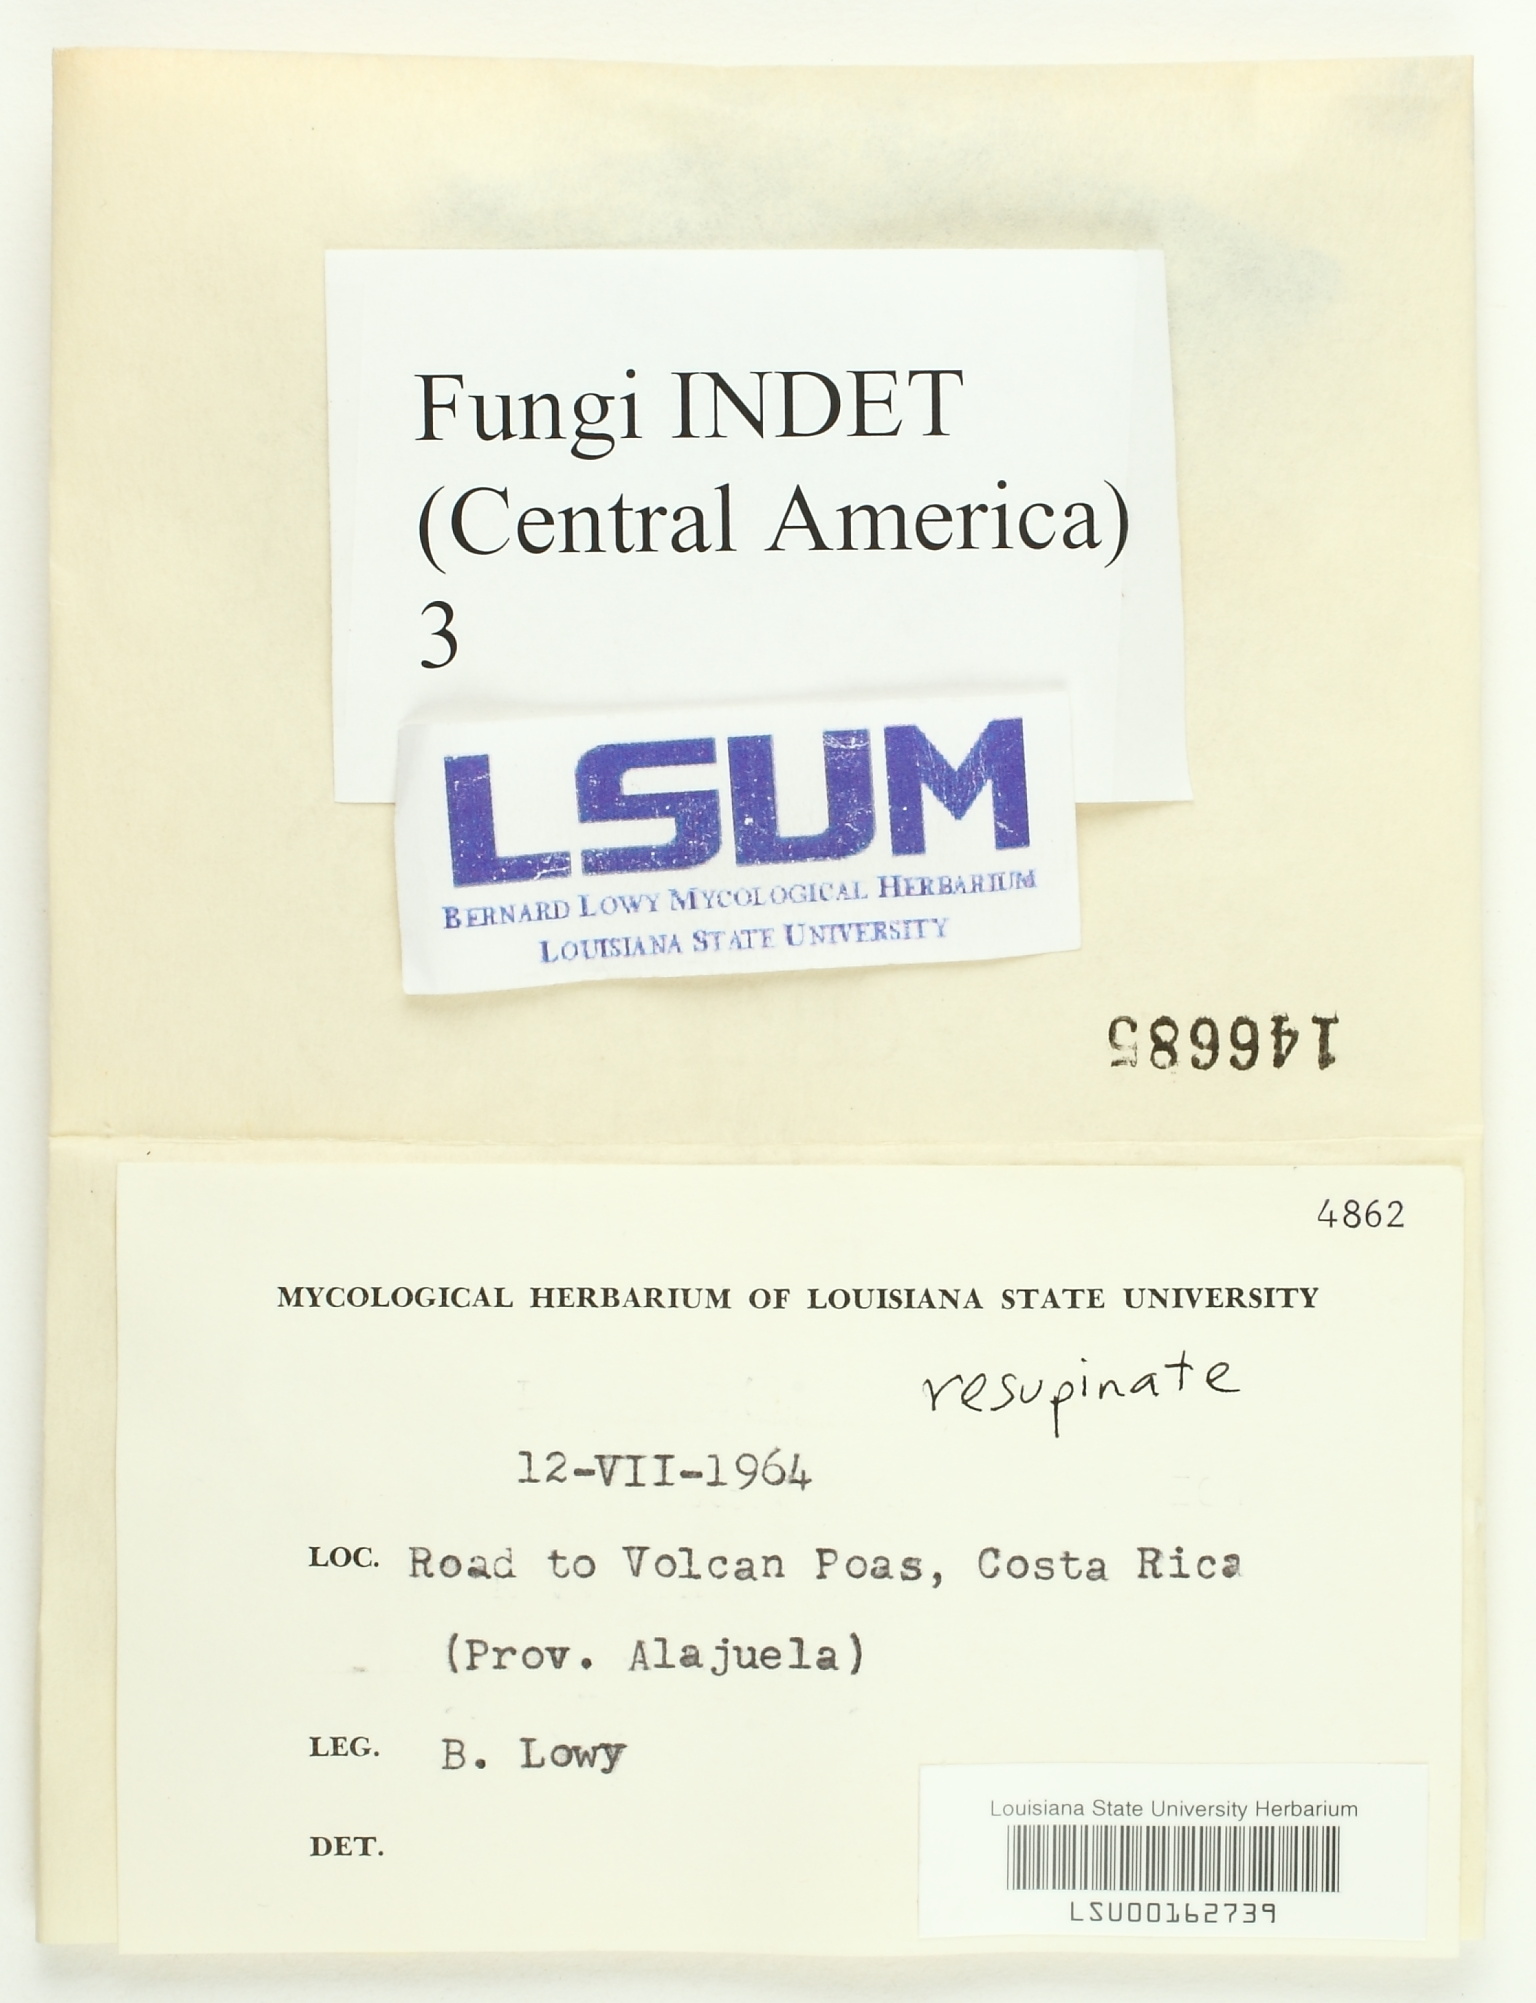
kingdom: Fungi
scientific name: Fungi
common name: Fungi
